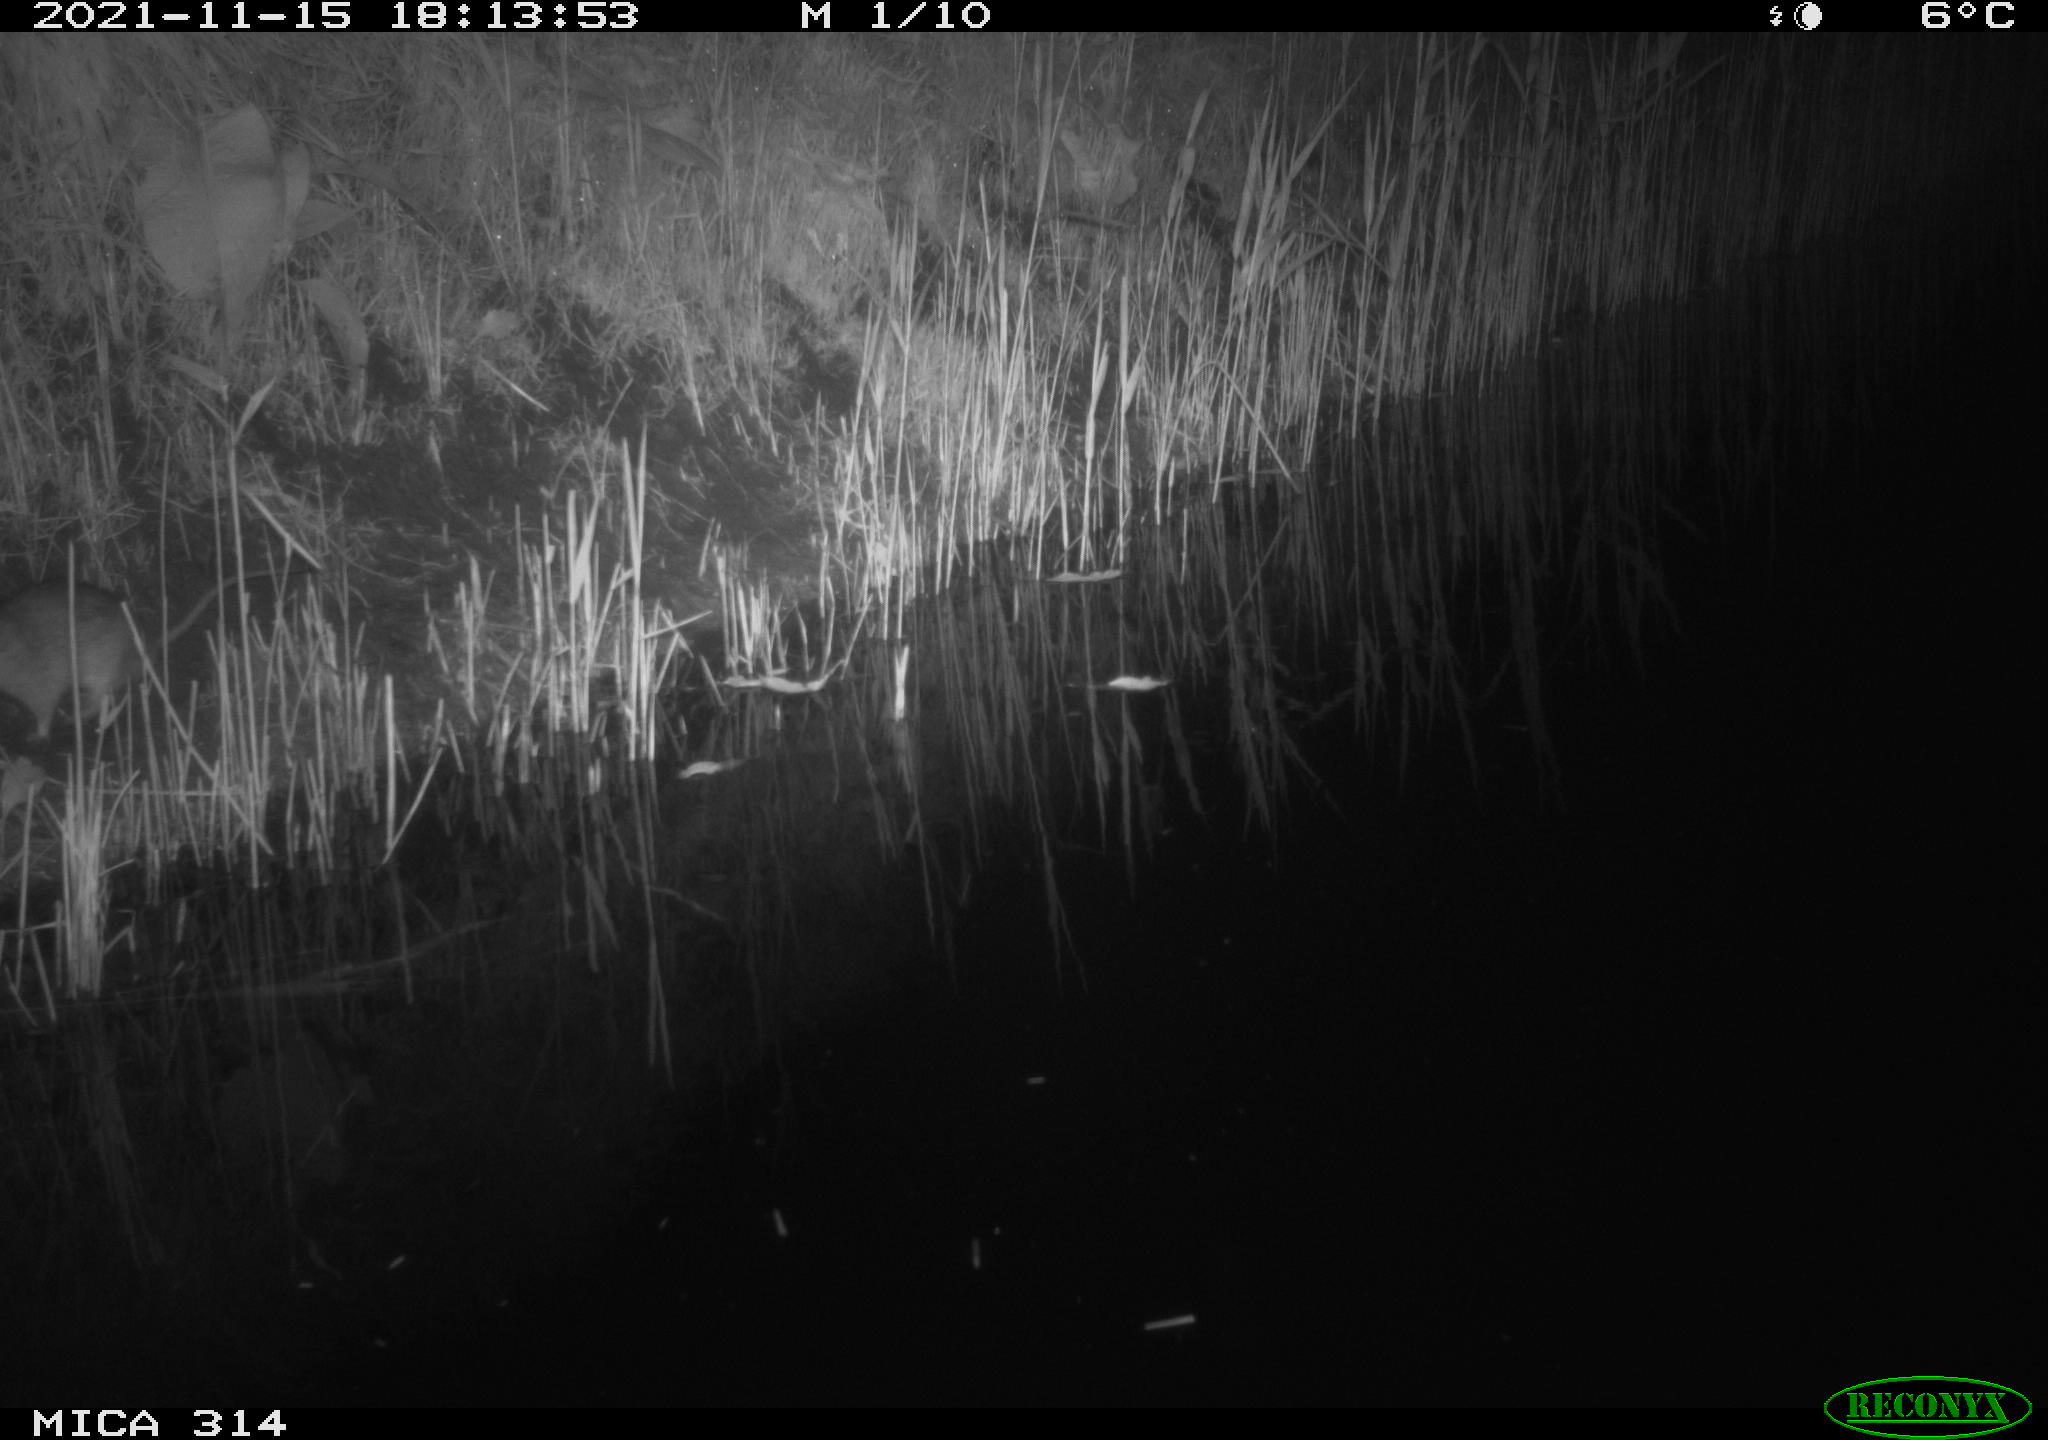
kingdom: Animalia
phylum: Chordata
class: Mammalia
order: Rodentia
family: Muridae
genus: Rattus
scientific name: Rattus norvegicus
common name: Brown rat
